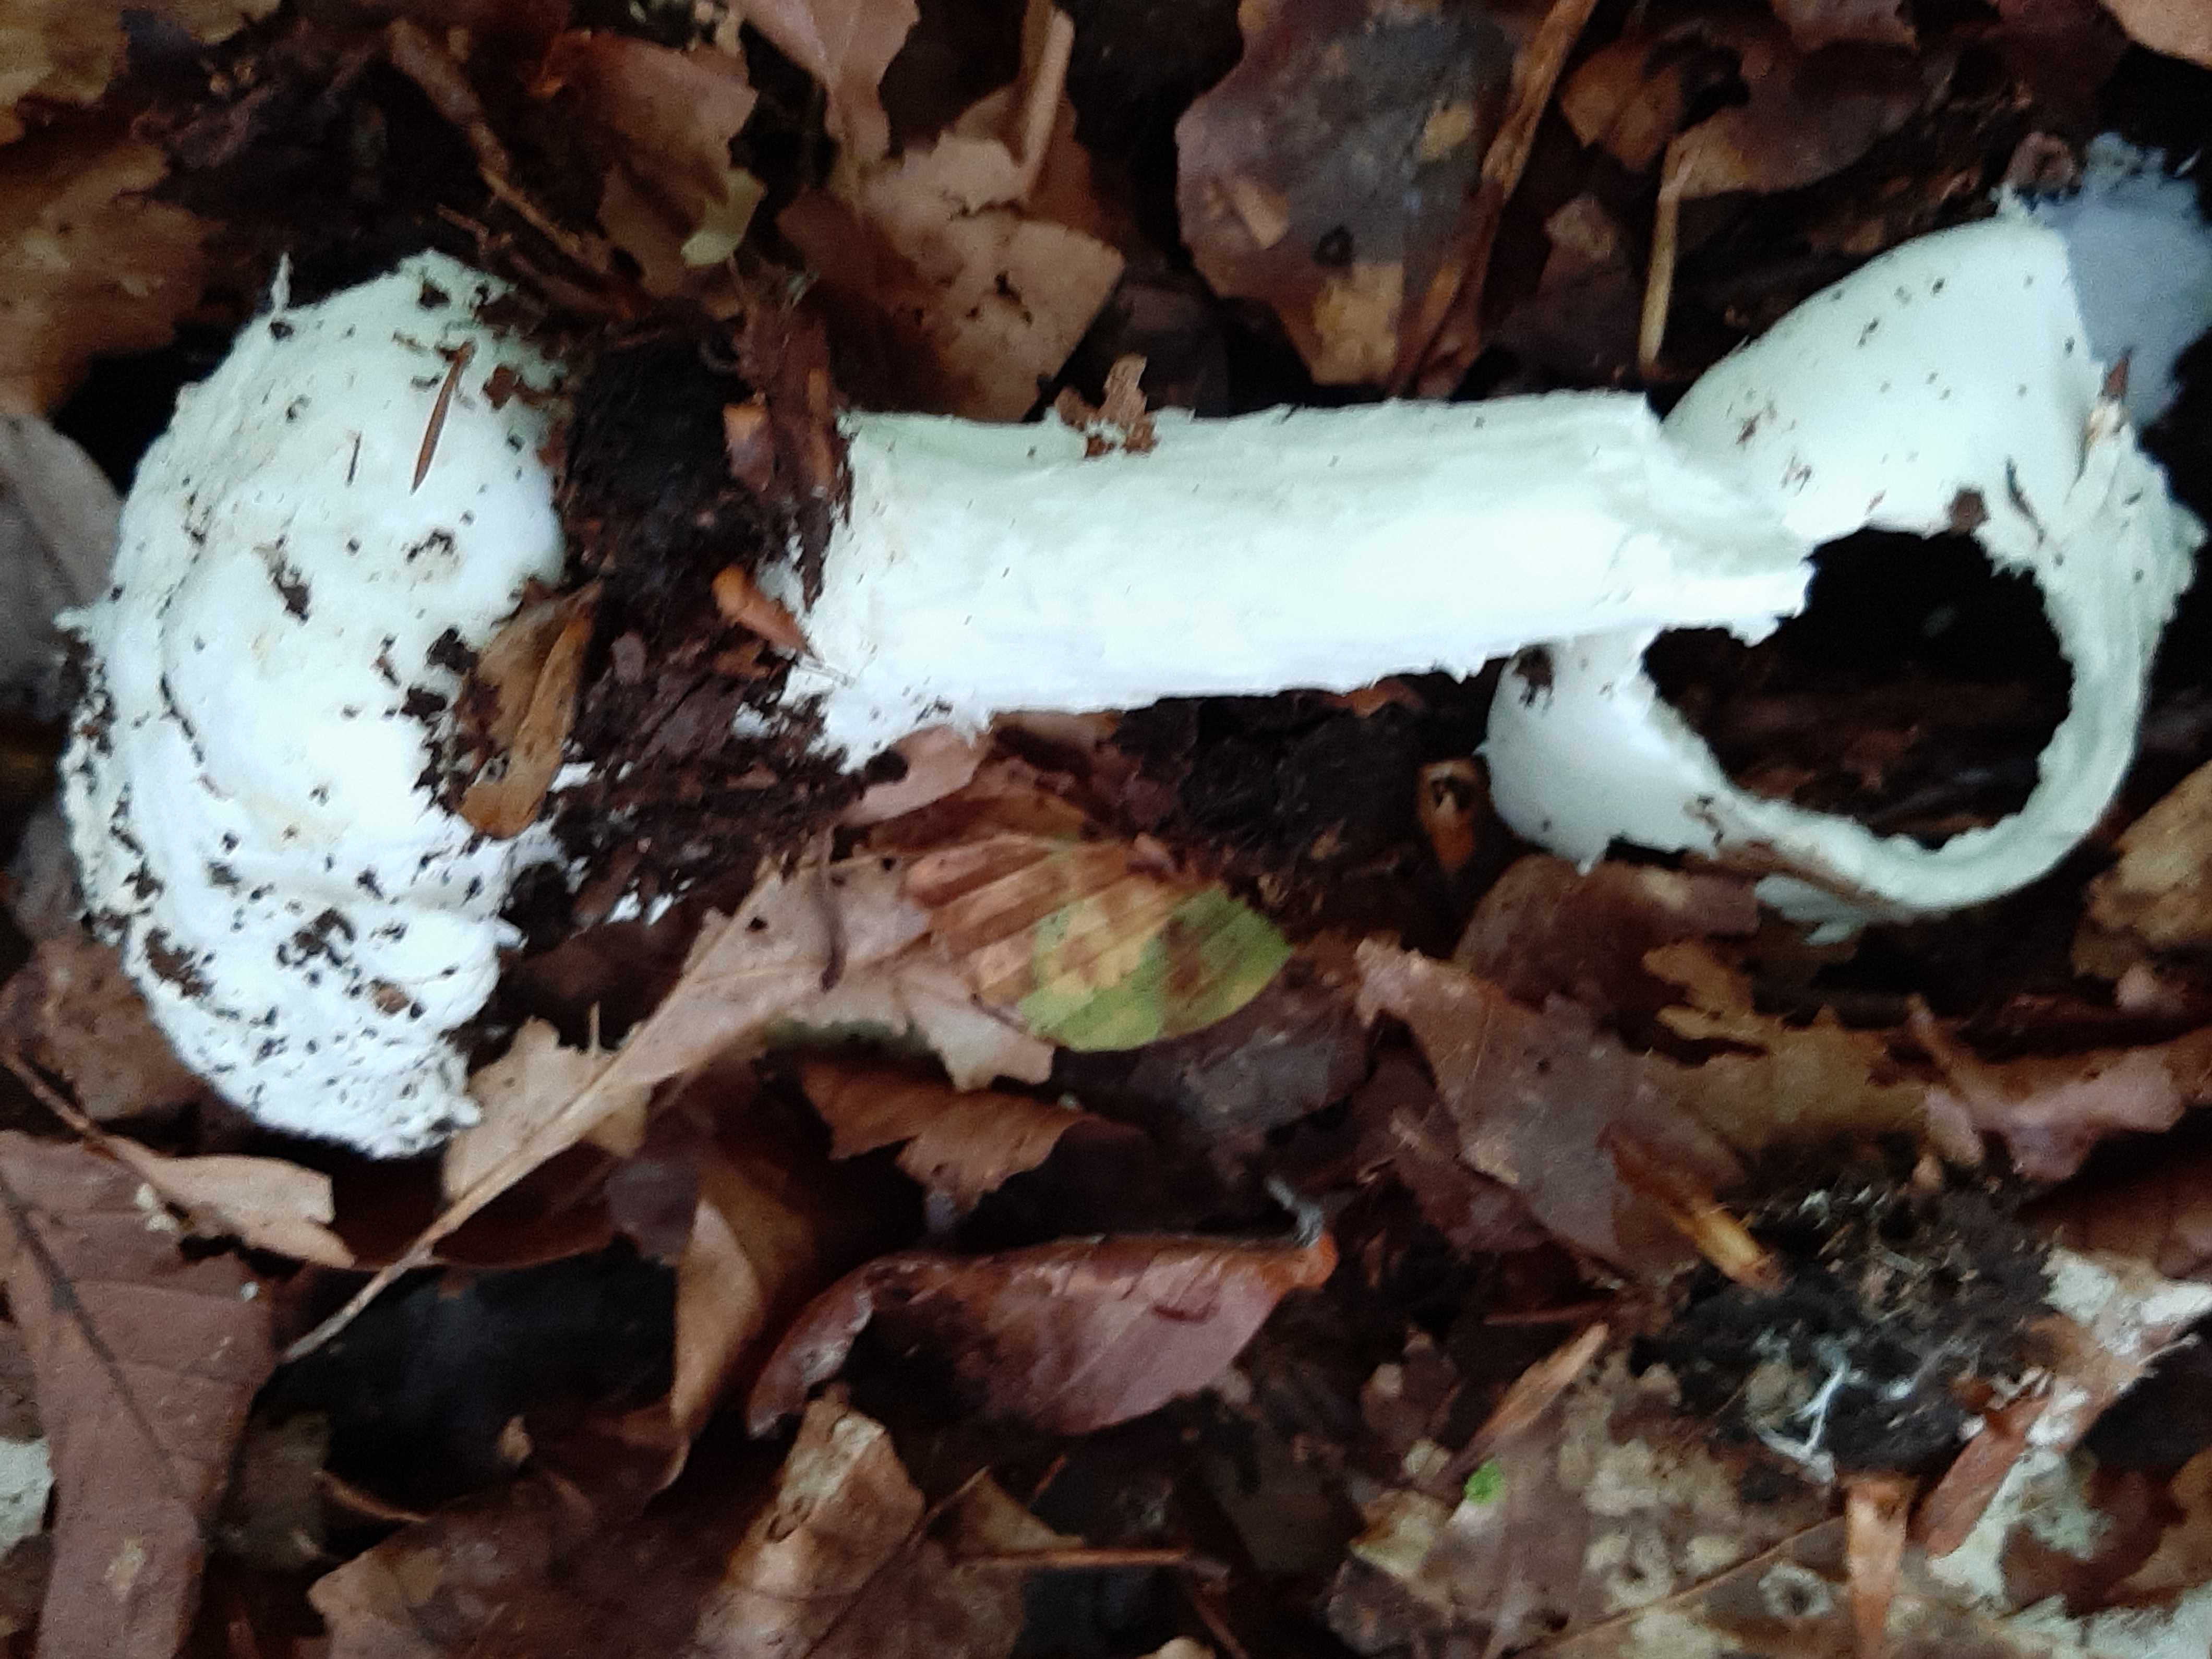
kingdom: Fungi
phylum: Basidiomycota
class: Agaricomycetes
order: Agaricales
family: Amanitaceae
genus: Amanita
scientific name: Amanita virosa
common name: snehvid fluesvamp
